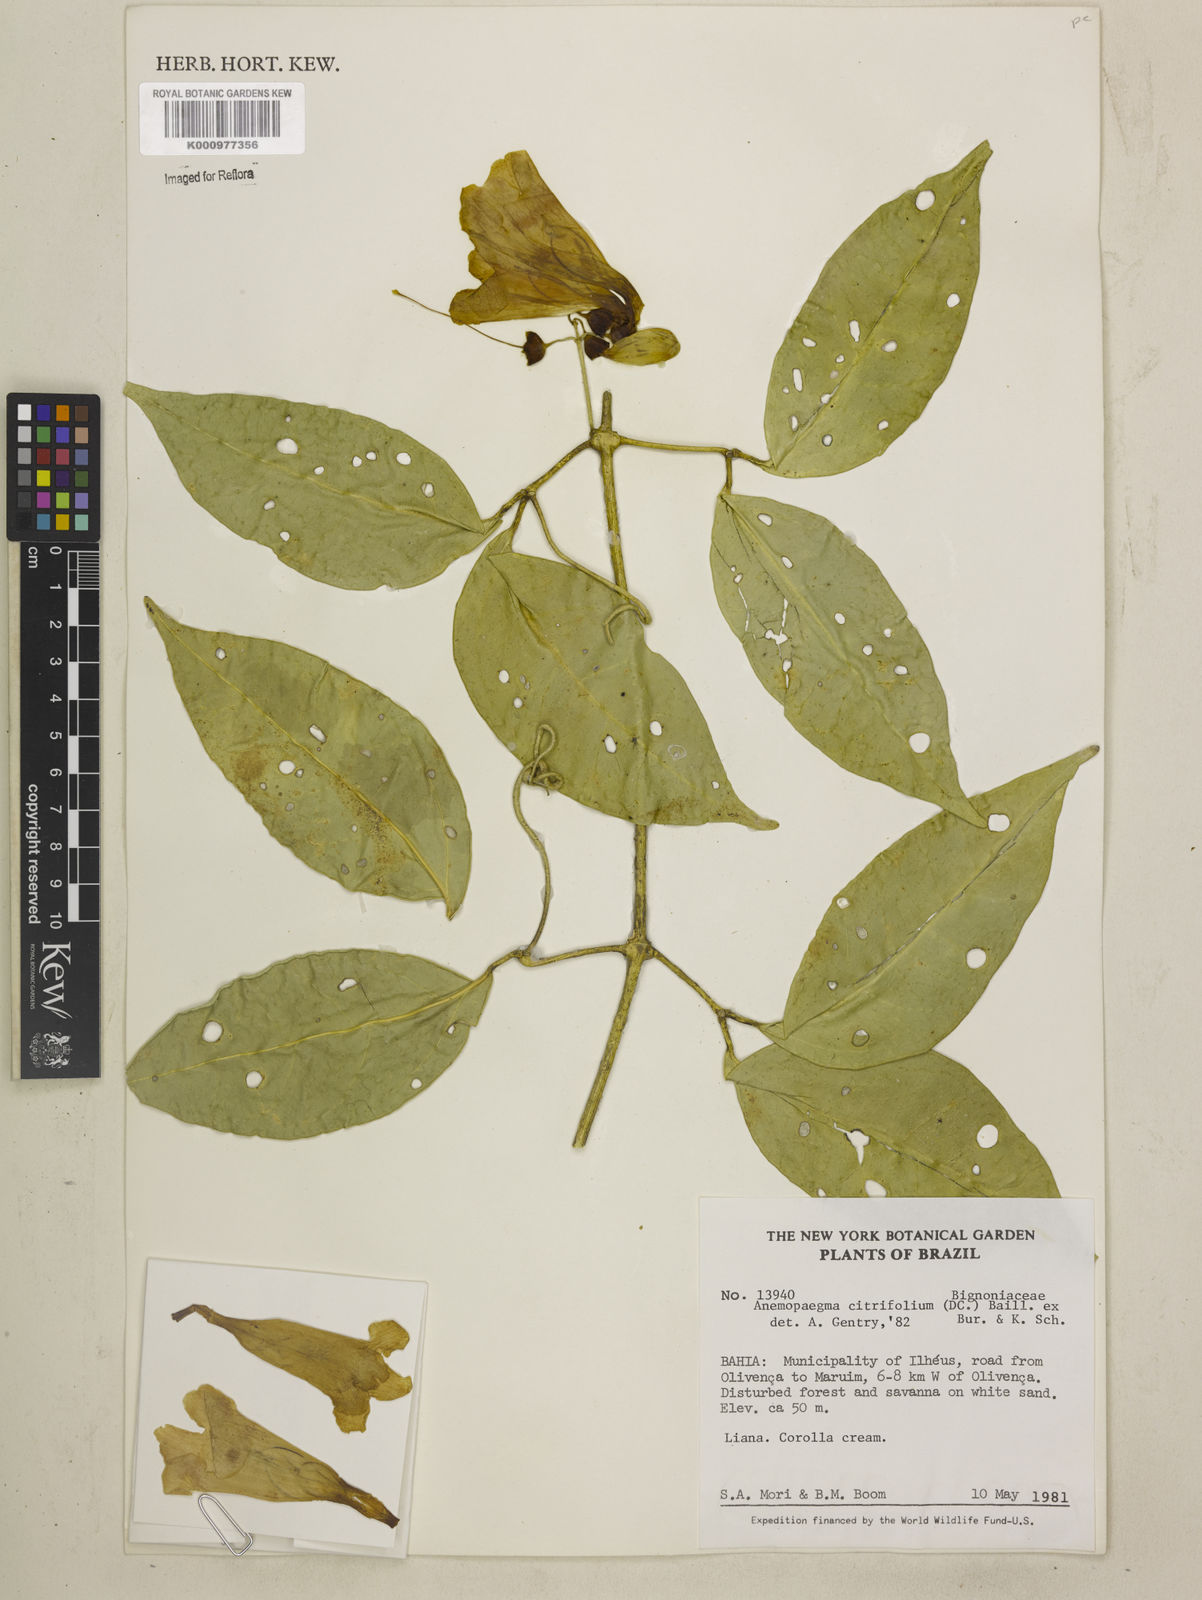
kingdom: Plantae
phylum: Tracheophyta
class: Magnoliopsida
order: Lamiales
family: Bignoniaceae
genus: Anemopaegma
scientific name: Anemopaegma citrinum
